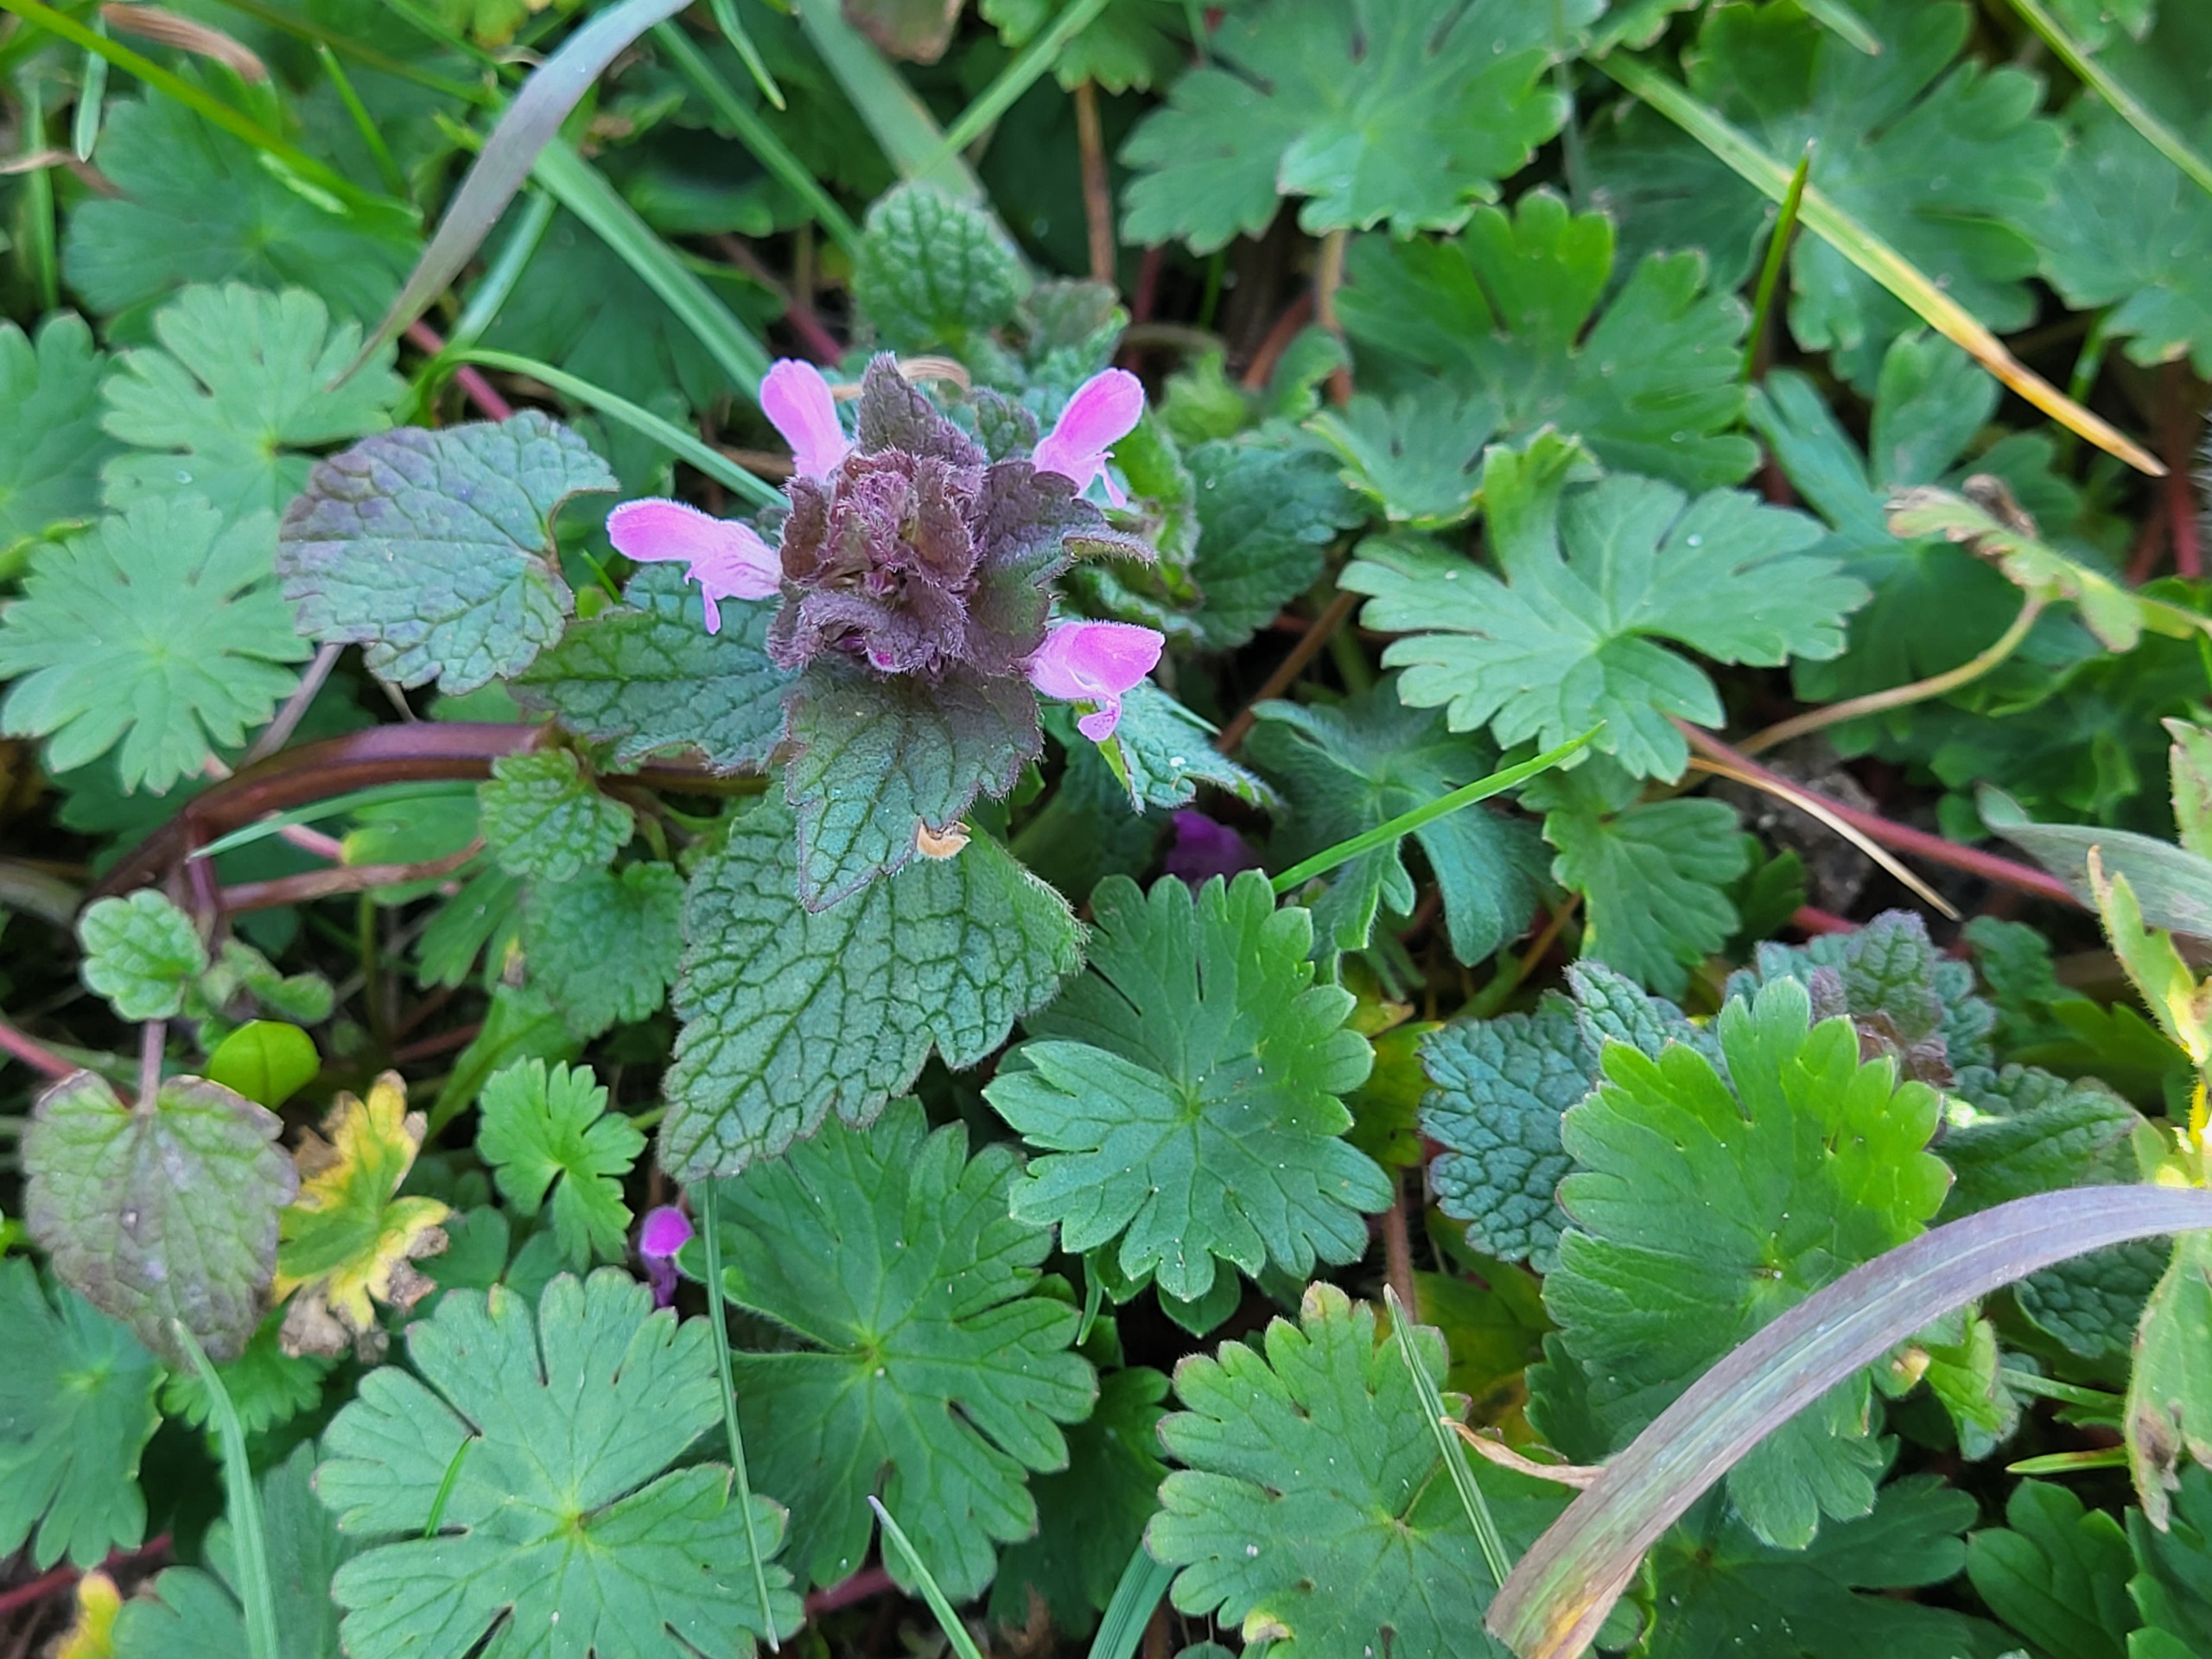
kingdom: Plantae
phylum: Tracheophyta
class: Magnoliopsida
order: Lamiales
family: Lamiaceae
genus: Lamium
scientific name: Lamium purpureum
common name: Rød tvetand
